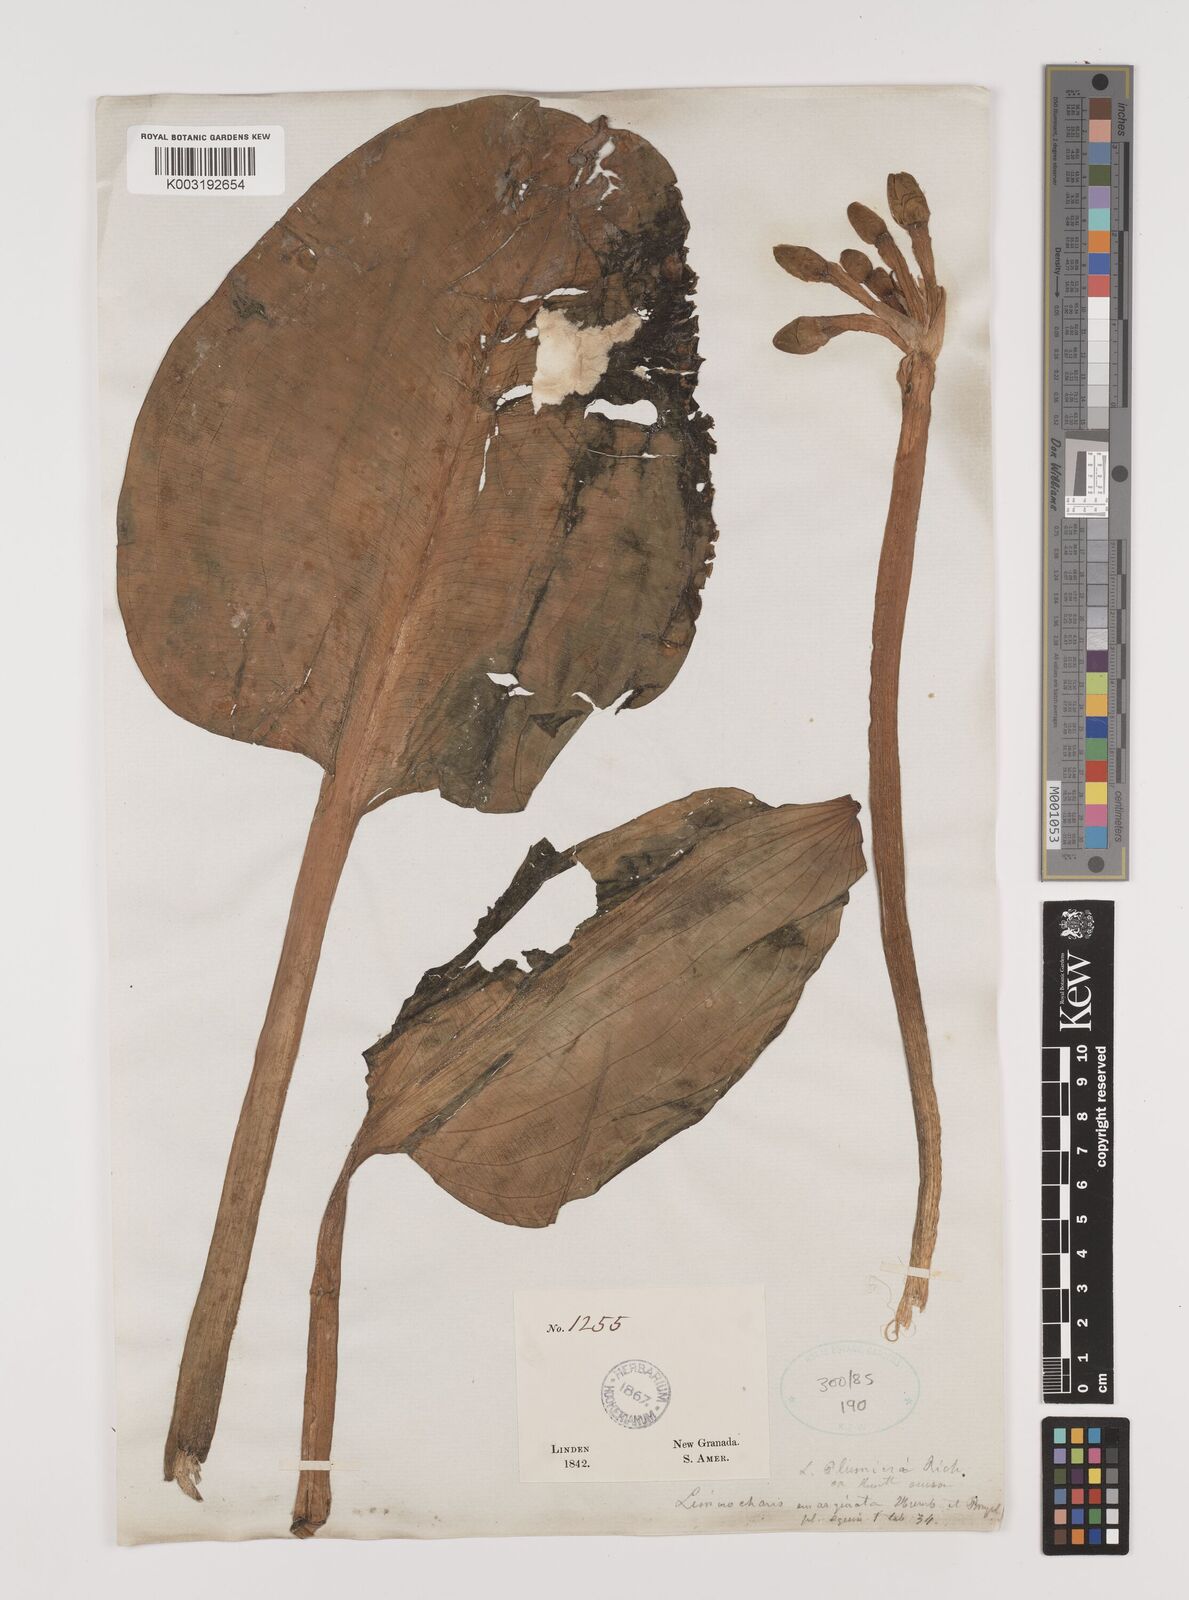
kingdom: Plantae
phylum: Tracheophyta
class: Liliopsida
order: Alismatales
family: Alismataceae
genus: Limnocharis
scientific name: Limnocharis flava
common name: Sawah-flower-rush
